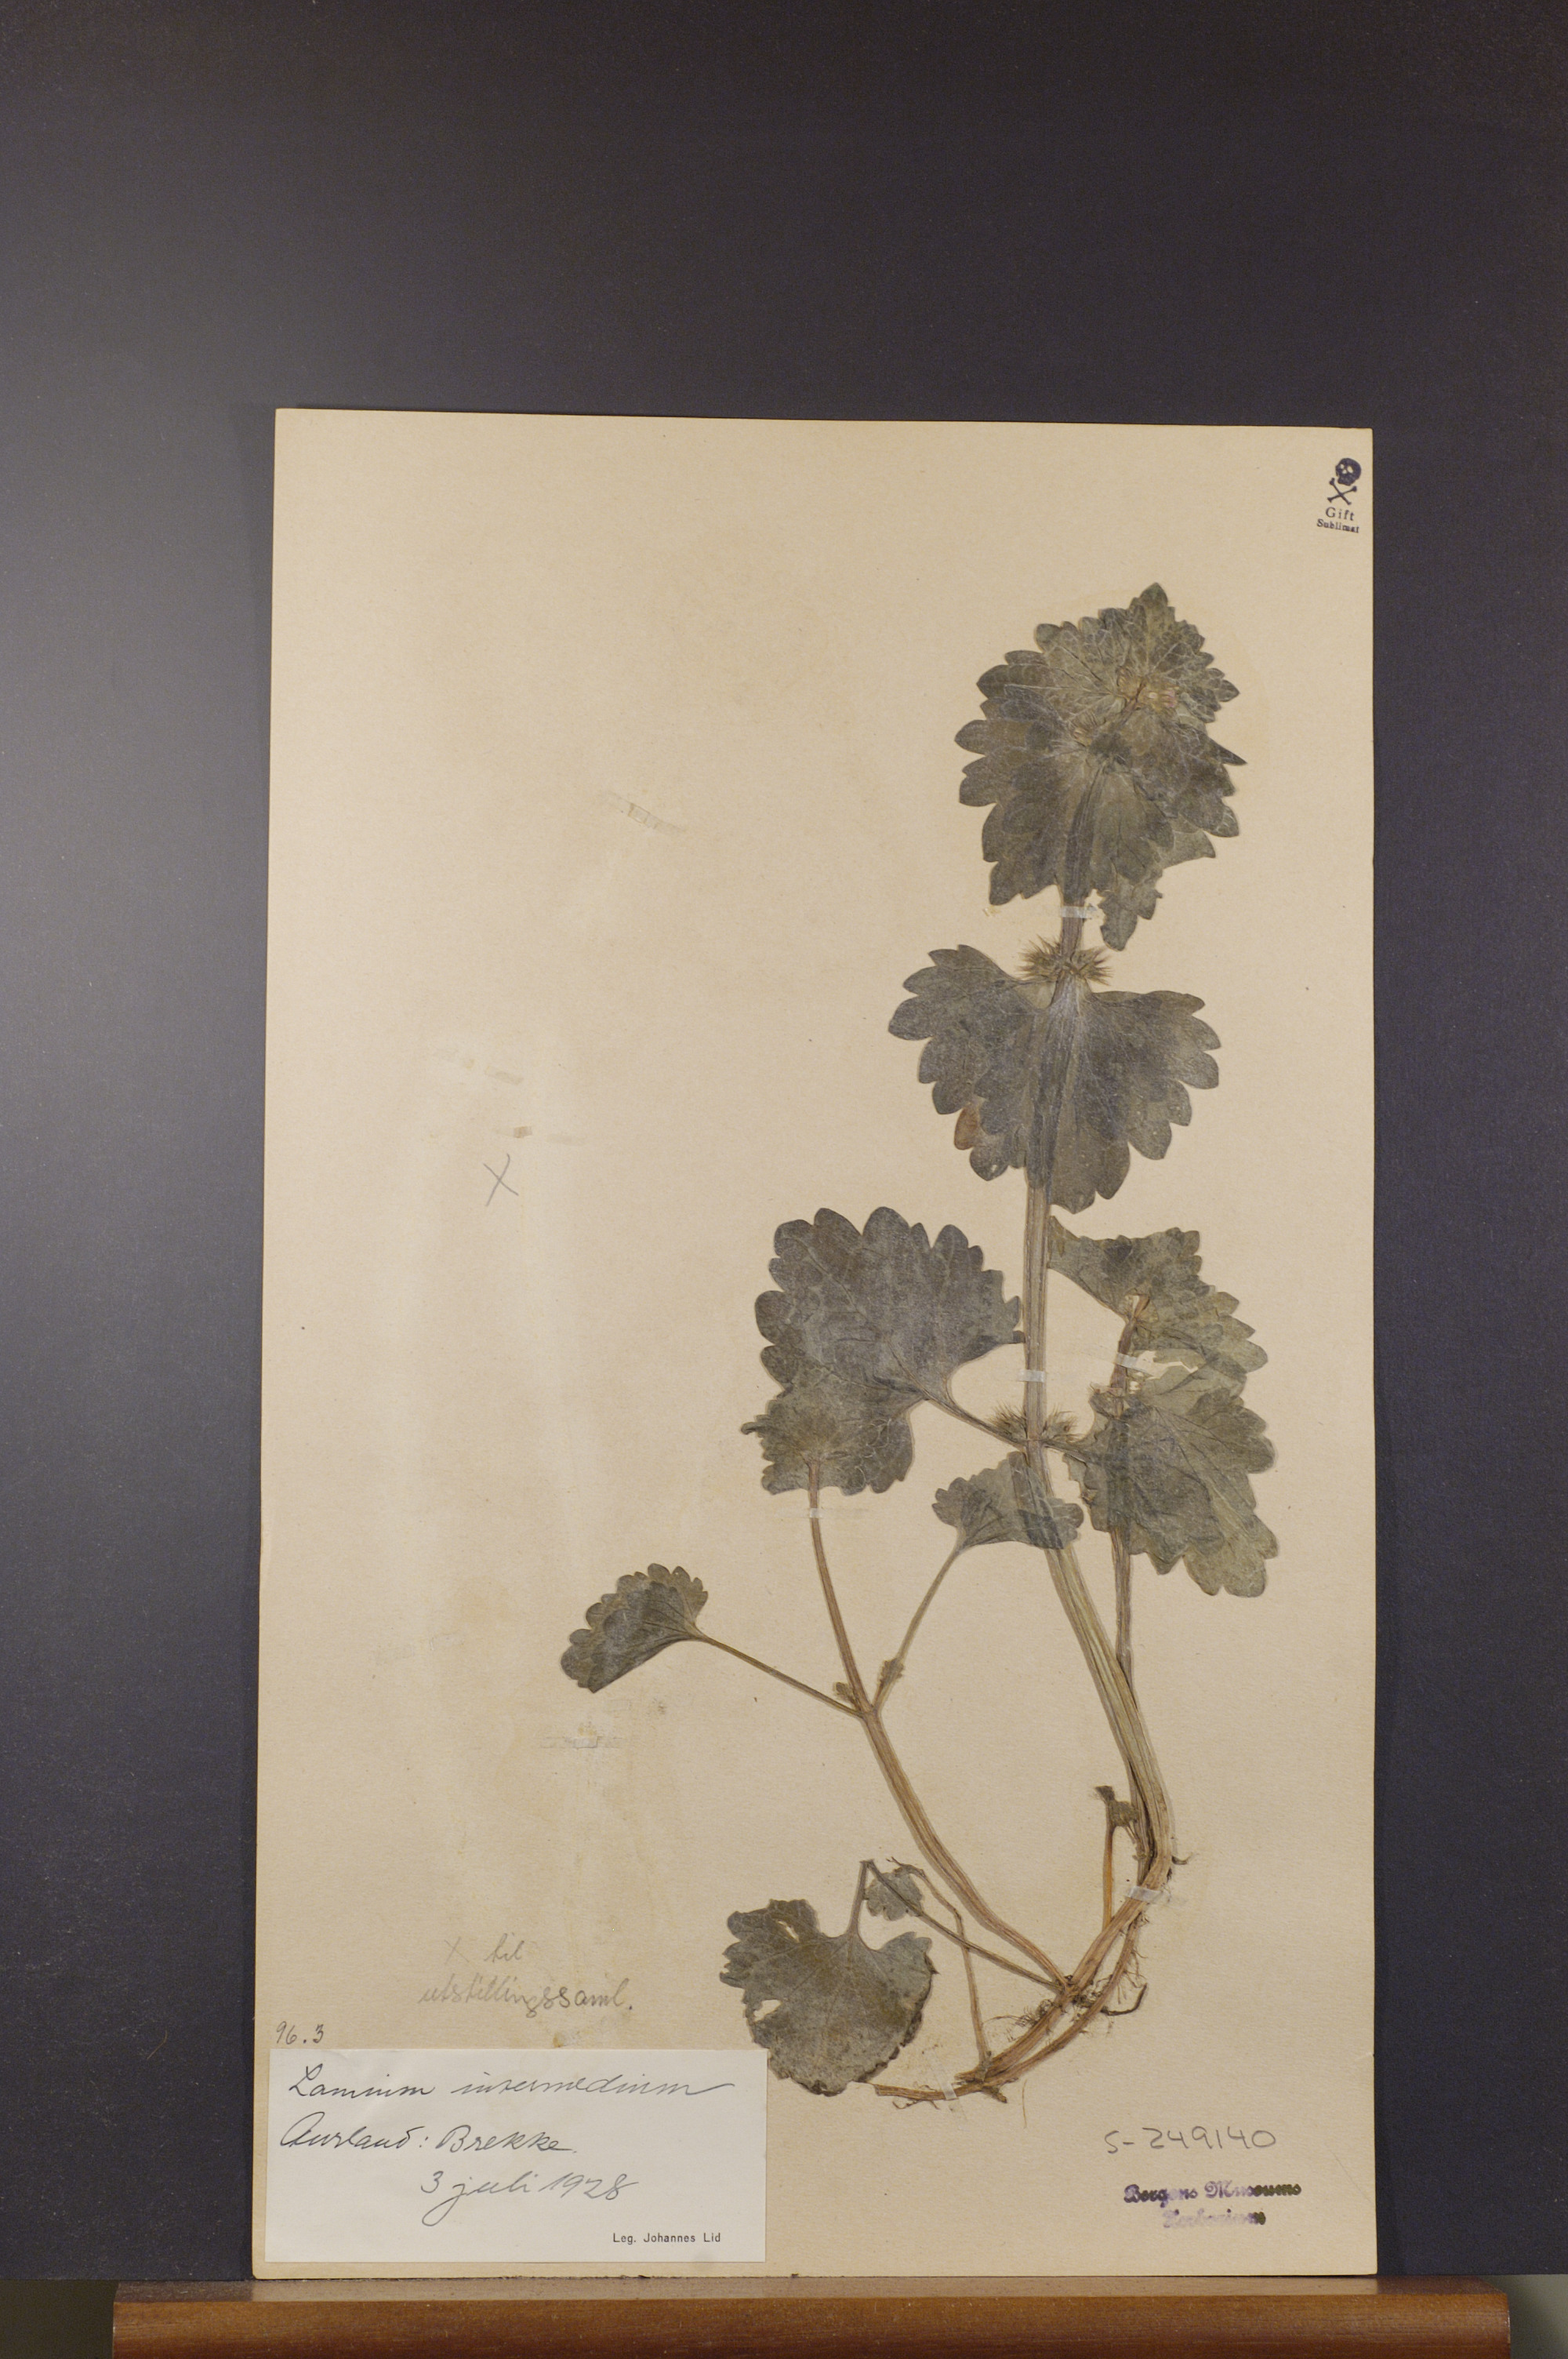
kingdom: Plantae
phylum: Tracheophyta
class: Magnoliopsida
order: Lamiales
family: Lamiaceae
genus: Lamium
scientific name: Lamium confertum
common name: Northern dead-nettle
